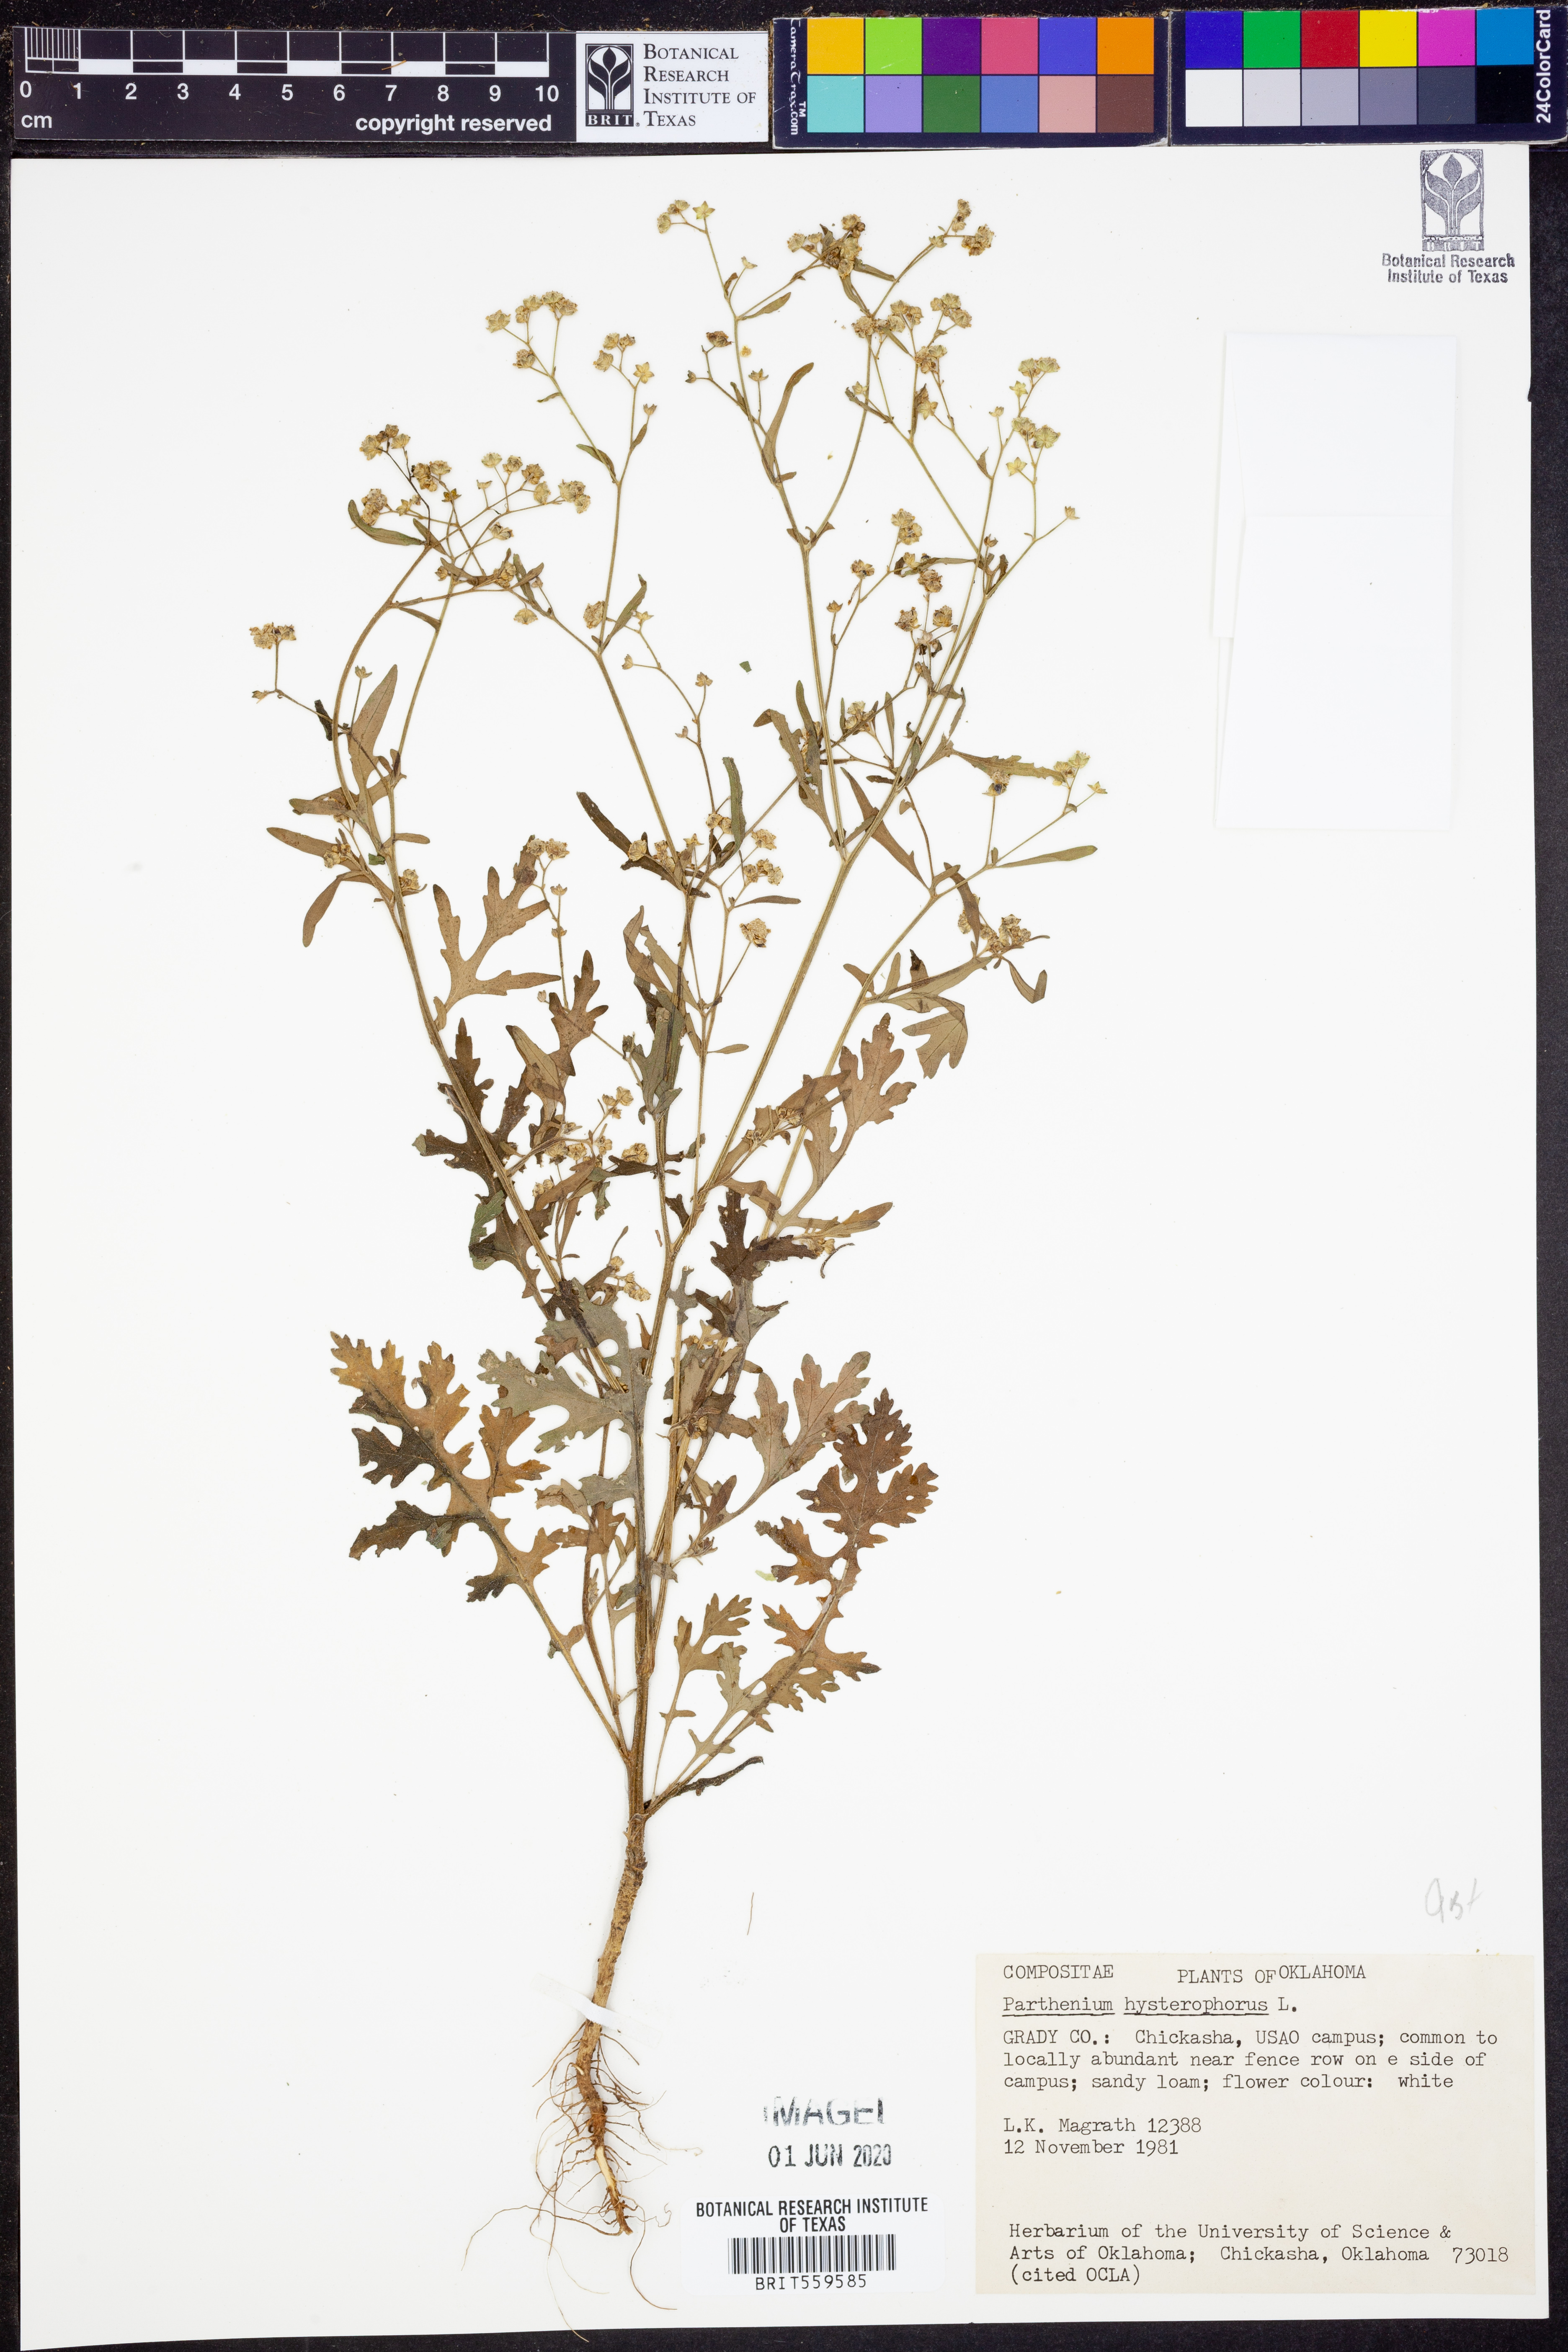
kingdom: Plantae
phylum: Tracheophyta
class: Magnoliopsida
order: Asterales
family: Asteraceae
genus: Parthenium
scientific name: Parthenium hysterophorus
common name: Santa maria feverfew
